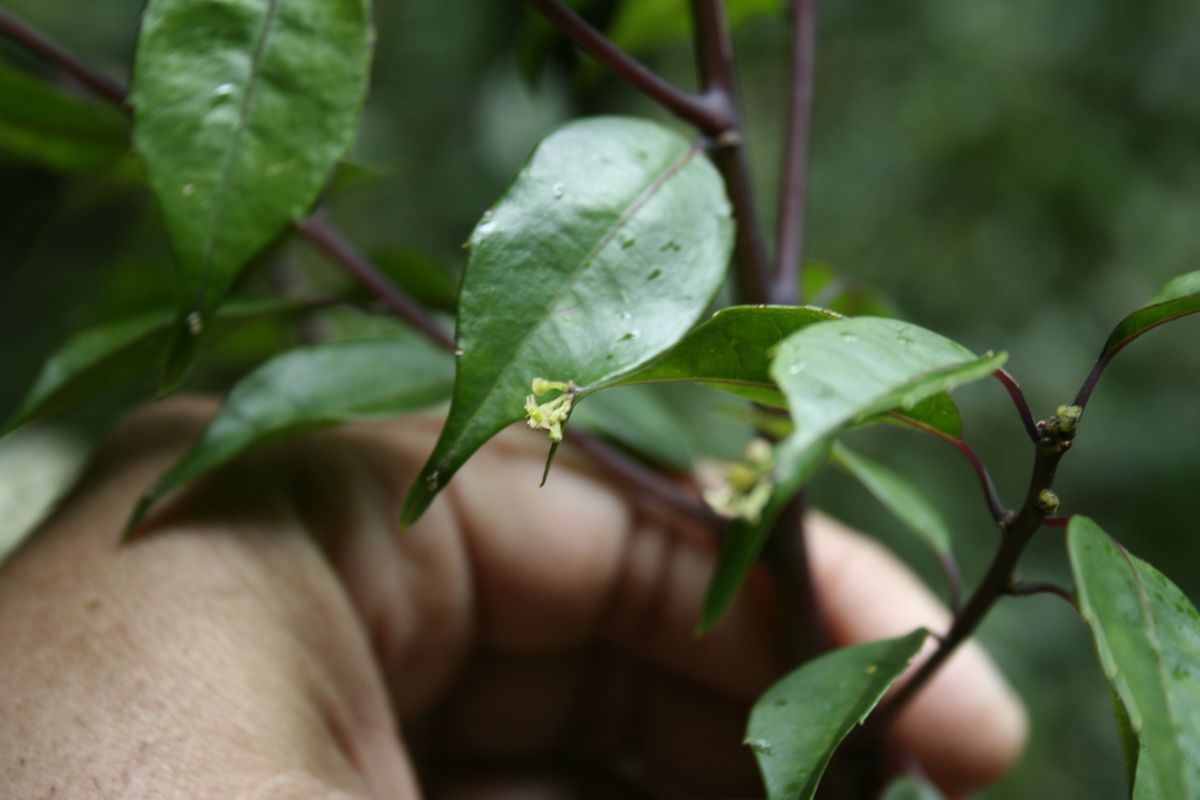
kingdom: Plantae
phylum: Tracheophyta
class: Magnoliopsida
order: Aquifoliales
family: Phyllonomaceae
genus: Phyllonoma
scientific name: Phyllonoma laticuspis
